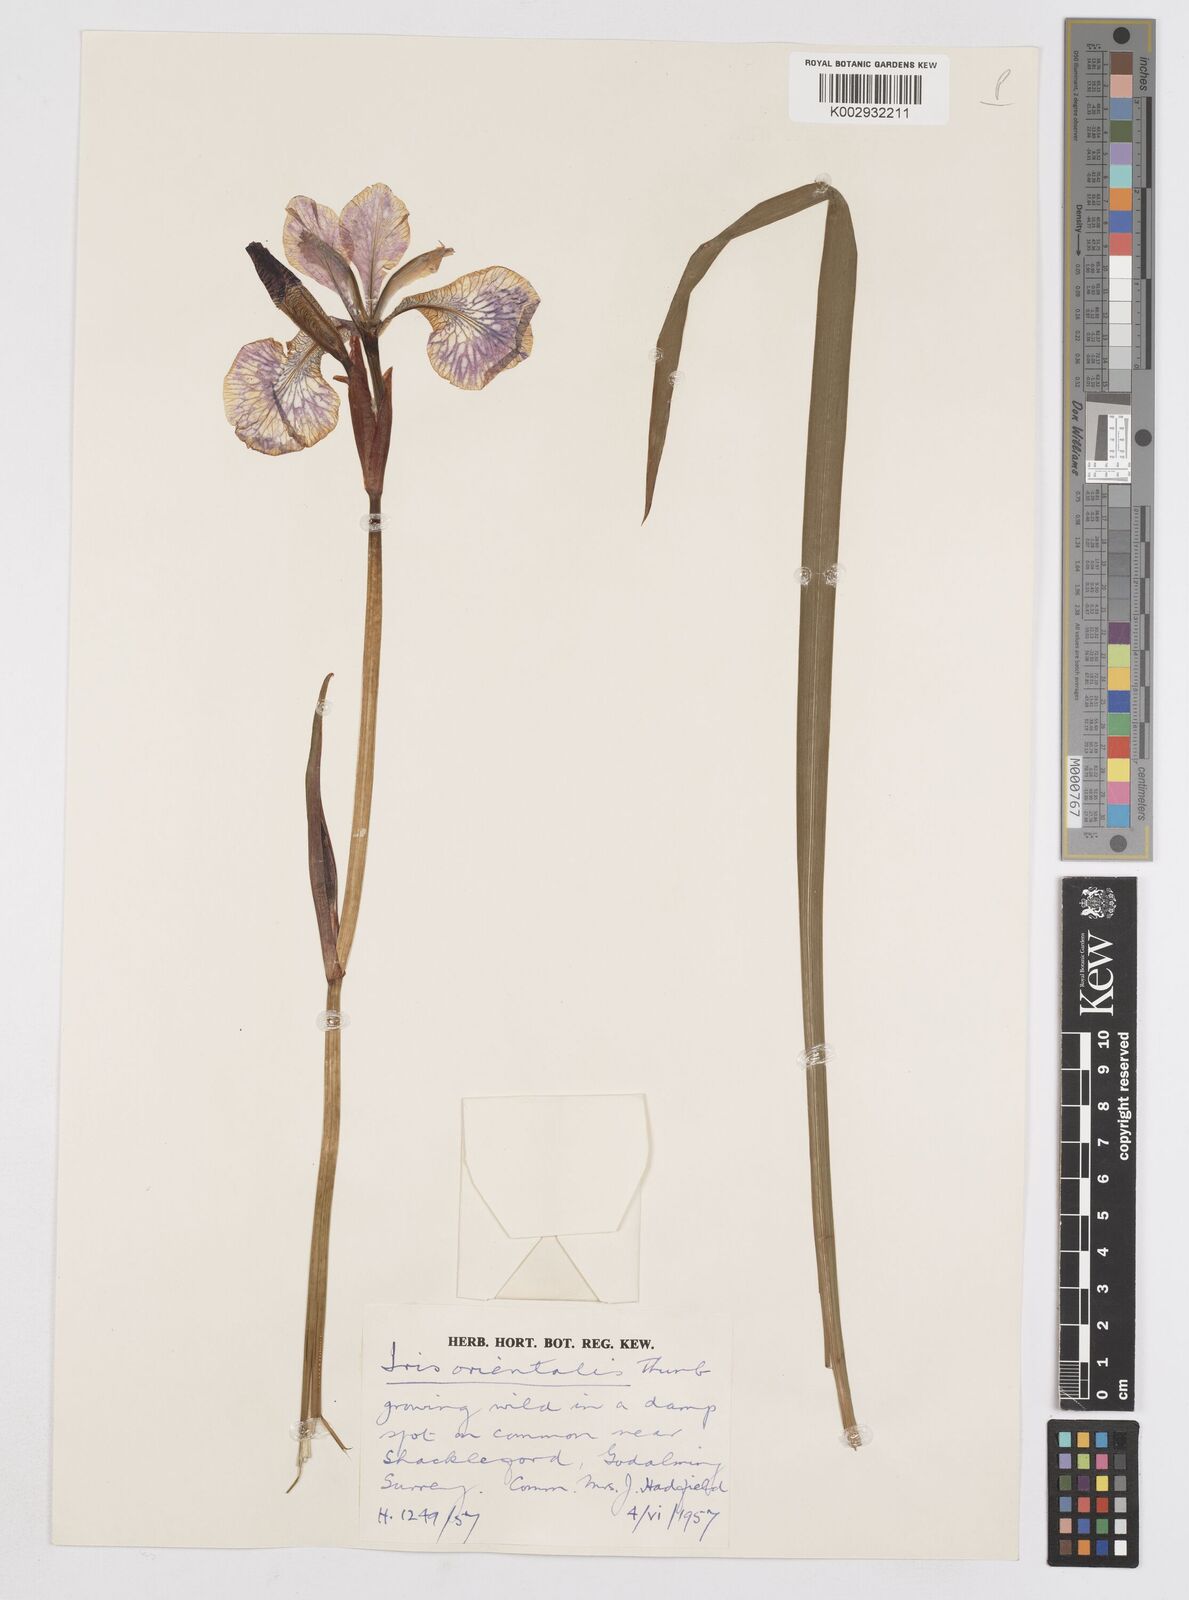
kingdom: Plantae
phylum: Tracheophyta
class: Liliopsida
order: Asparagales
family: Iridaceae
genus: Iris
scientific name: Iris sanguinea
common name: Blood iris
